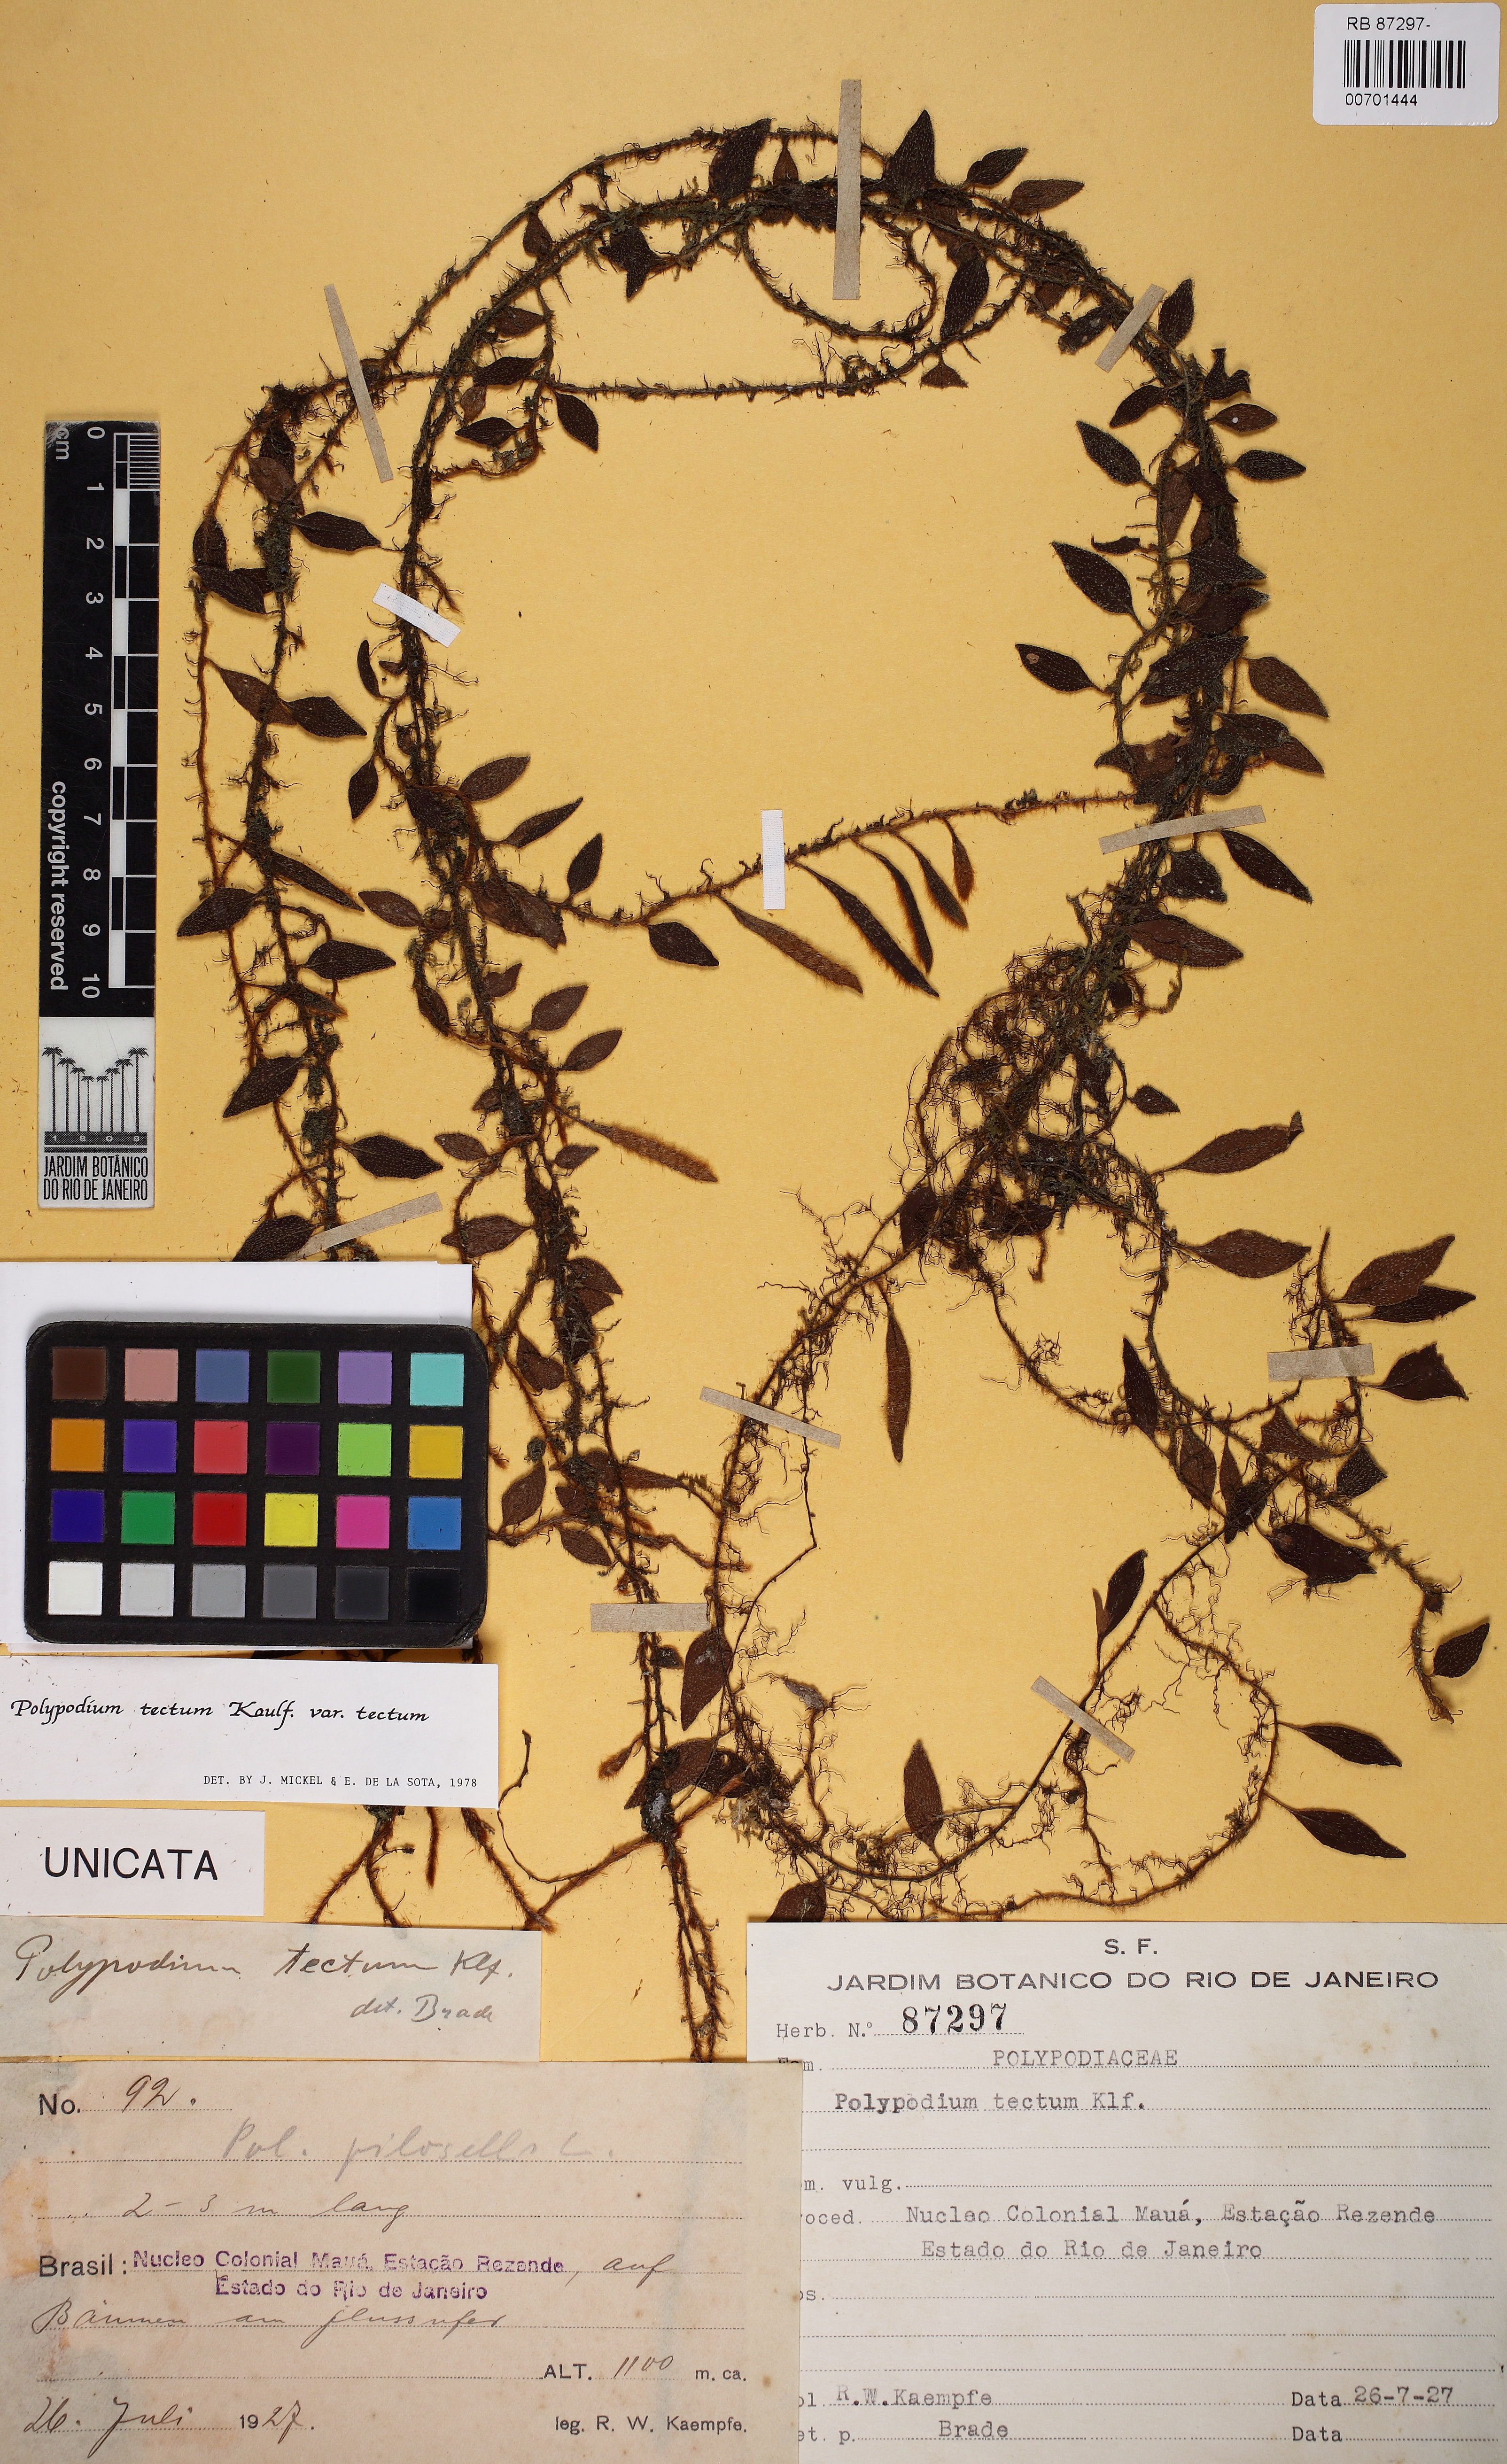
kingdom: Plantae
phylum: Tracheophyta
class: Polypodiopsida
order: Polypodiales
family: Polypodiaceae
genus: Microgramma
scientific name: Microgramma tecta
